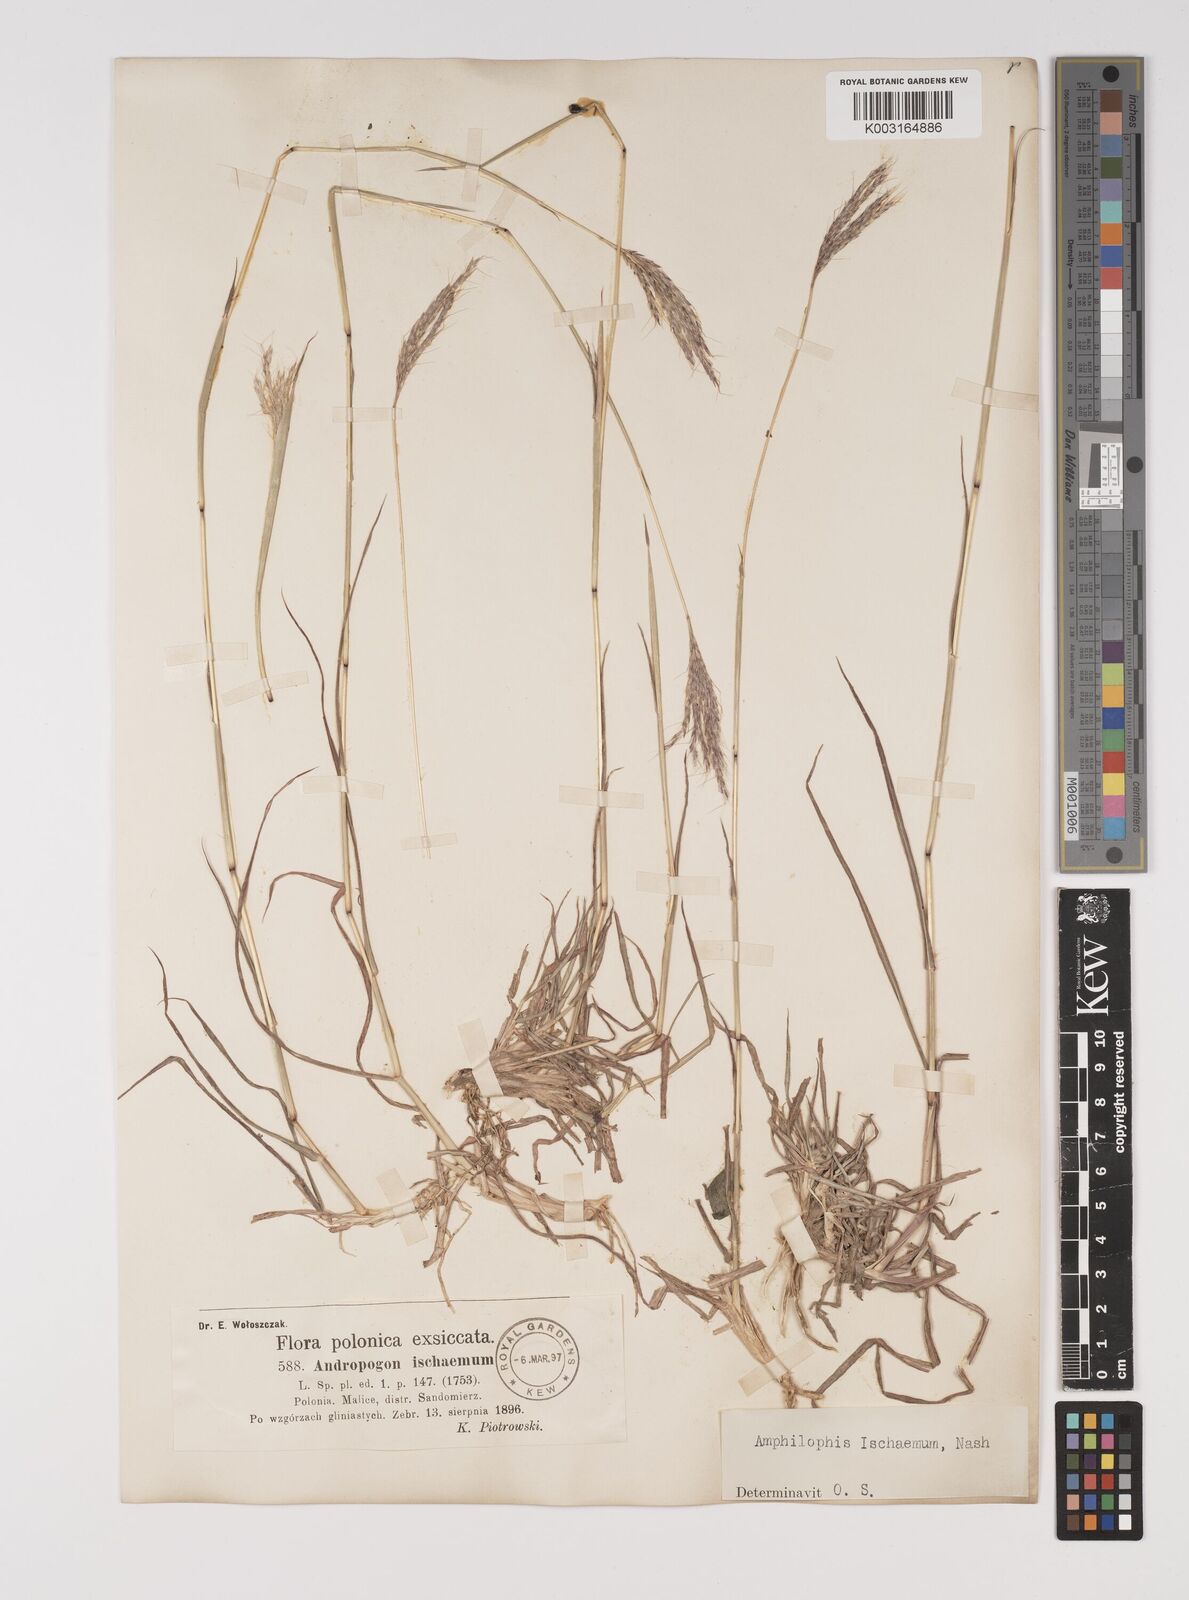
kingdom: Plantae
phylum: Tracheophyta
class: Liliopsida
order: Poales
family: Poaceae
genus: Bothriochloa
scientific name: Bothriochloa ischaemum
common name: Yellow bluestem
